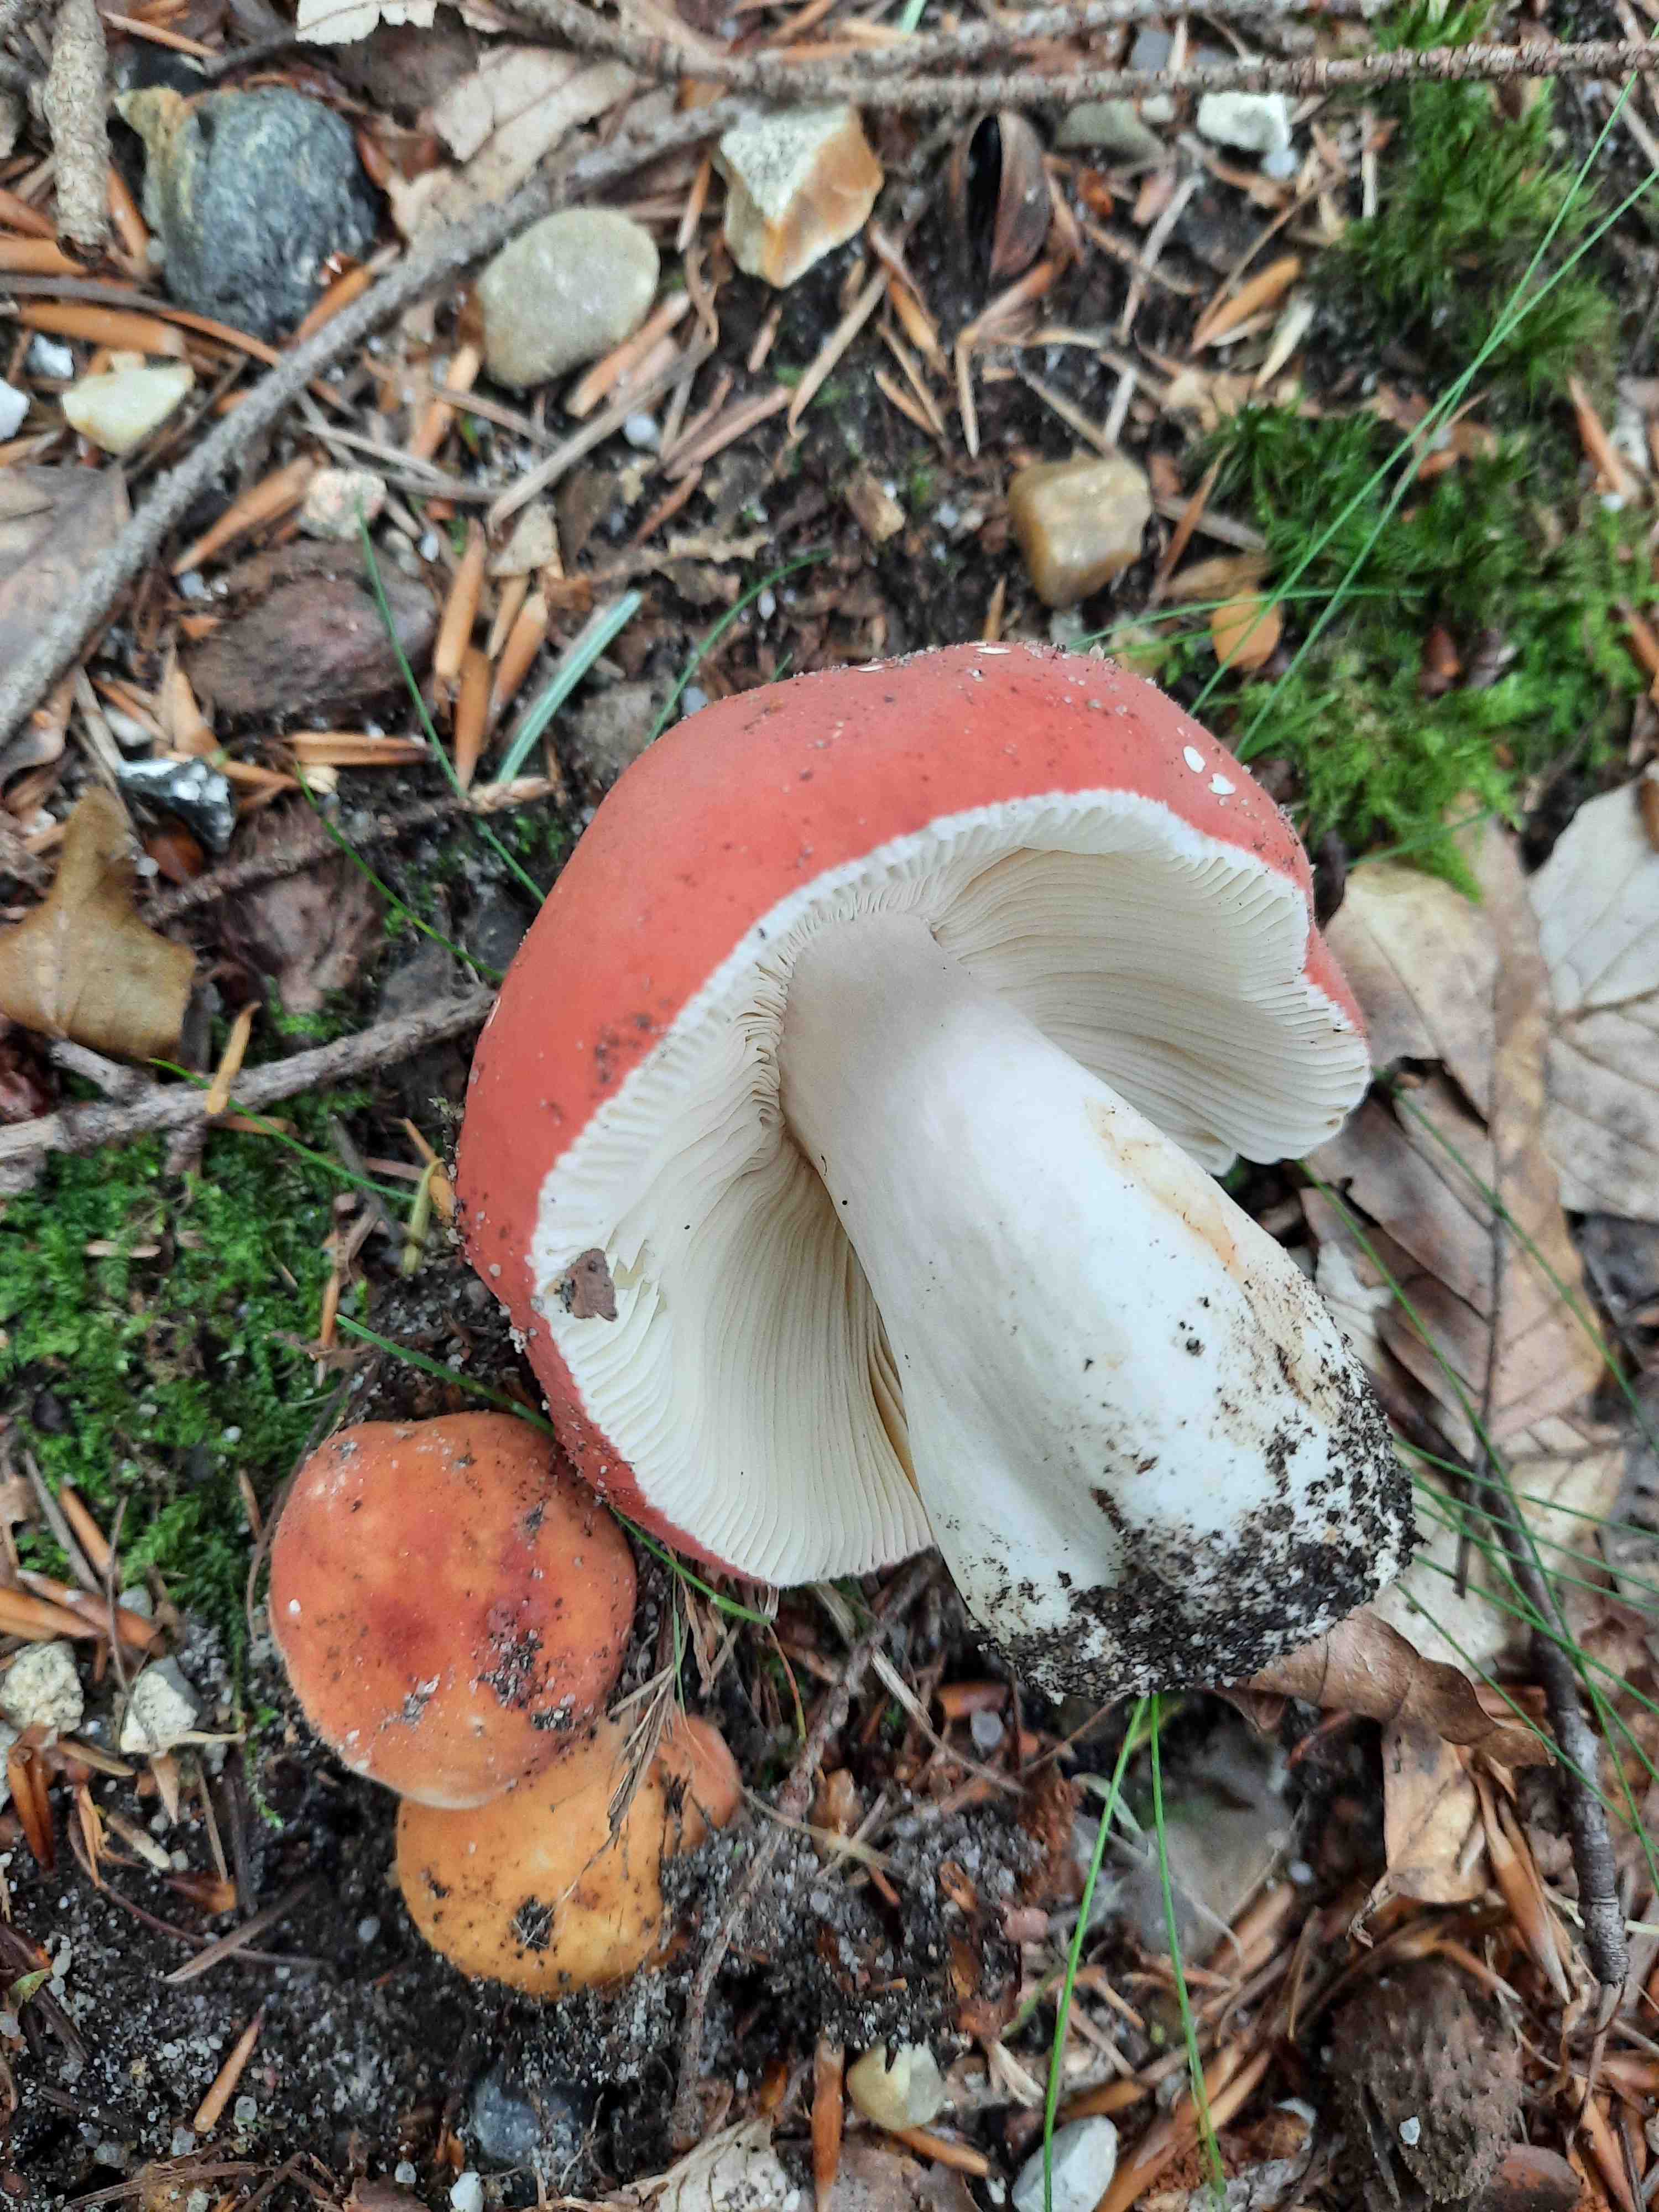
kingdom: Fungi
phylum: Basidiomycota
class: Agaricomycetes
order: Russulales
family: Russulaceae
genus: Russula
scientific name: Russula rosea
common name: fastkødet skørhat
